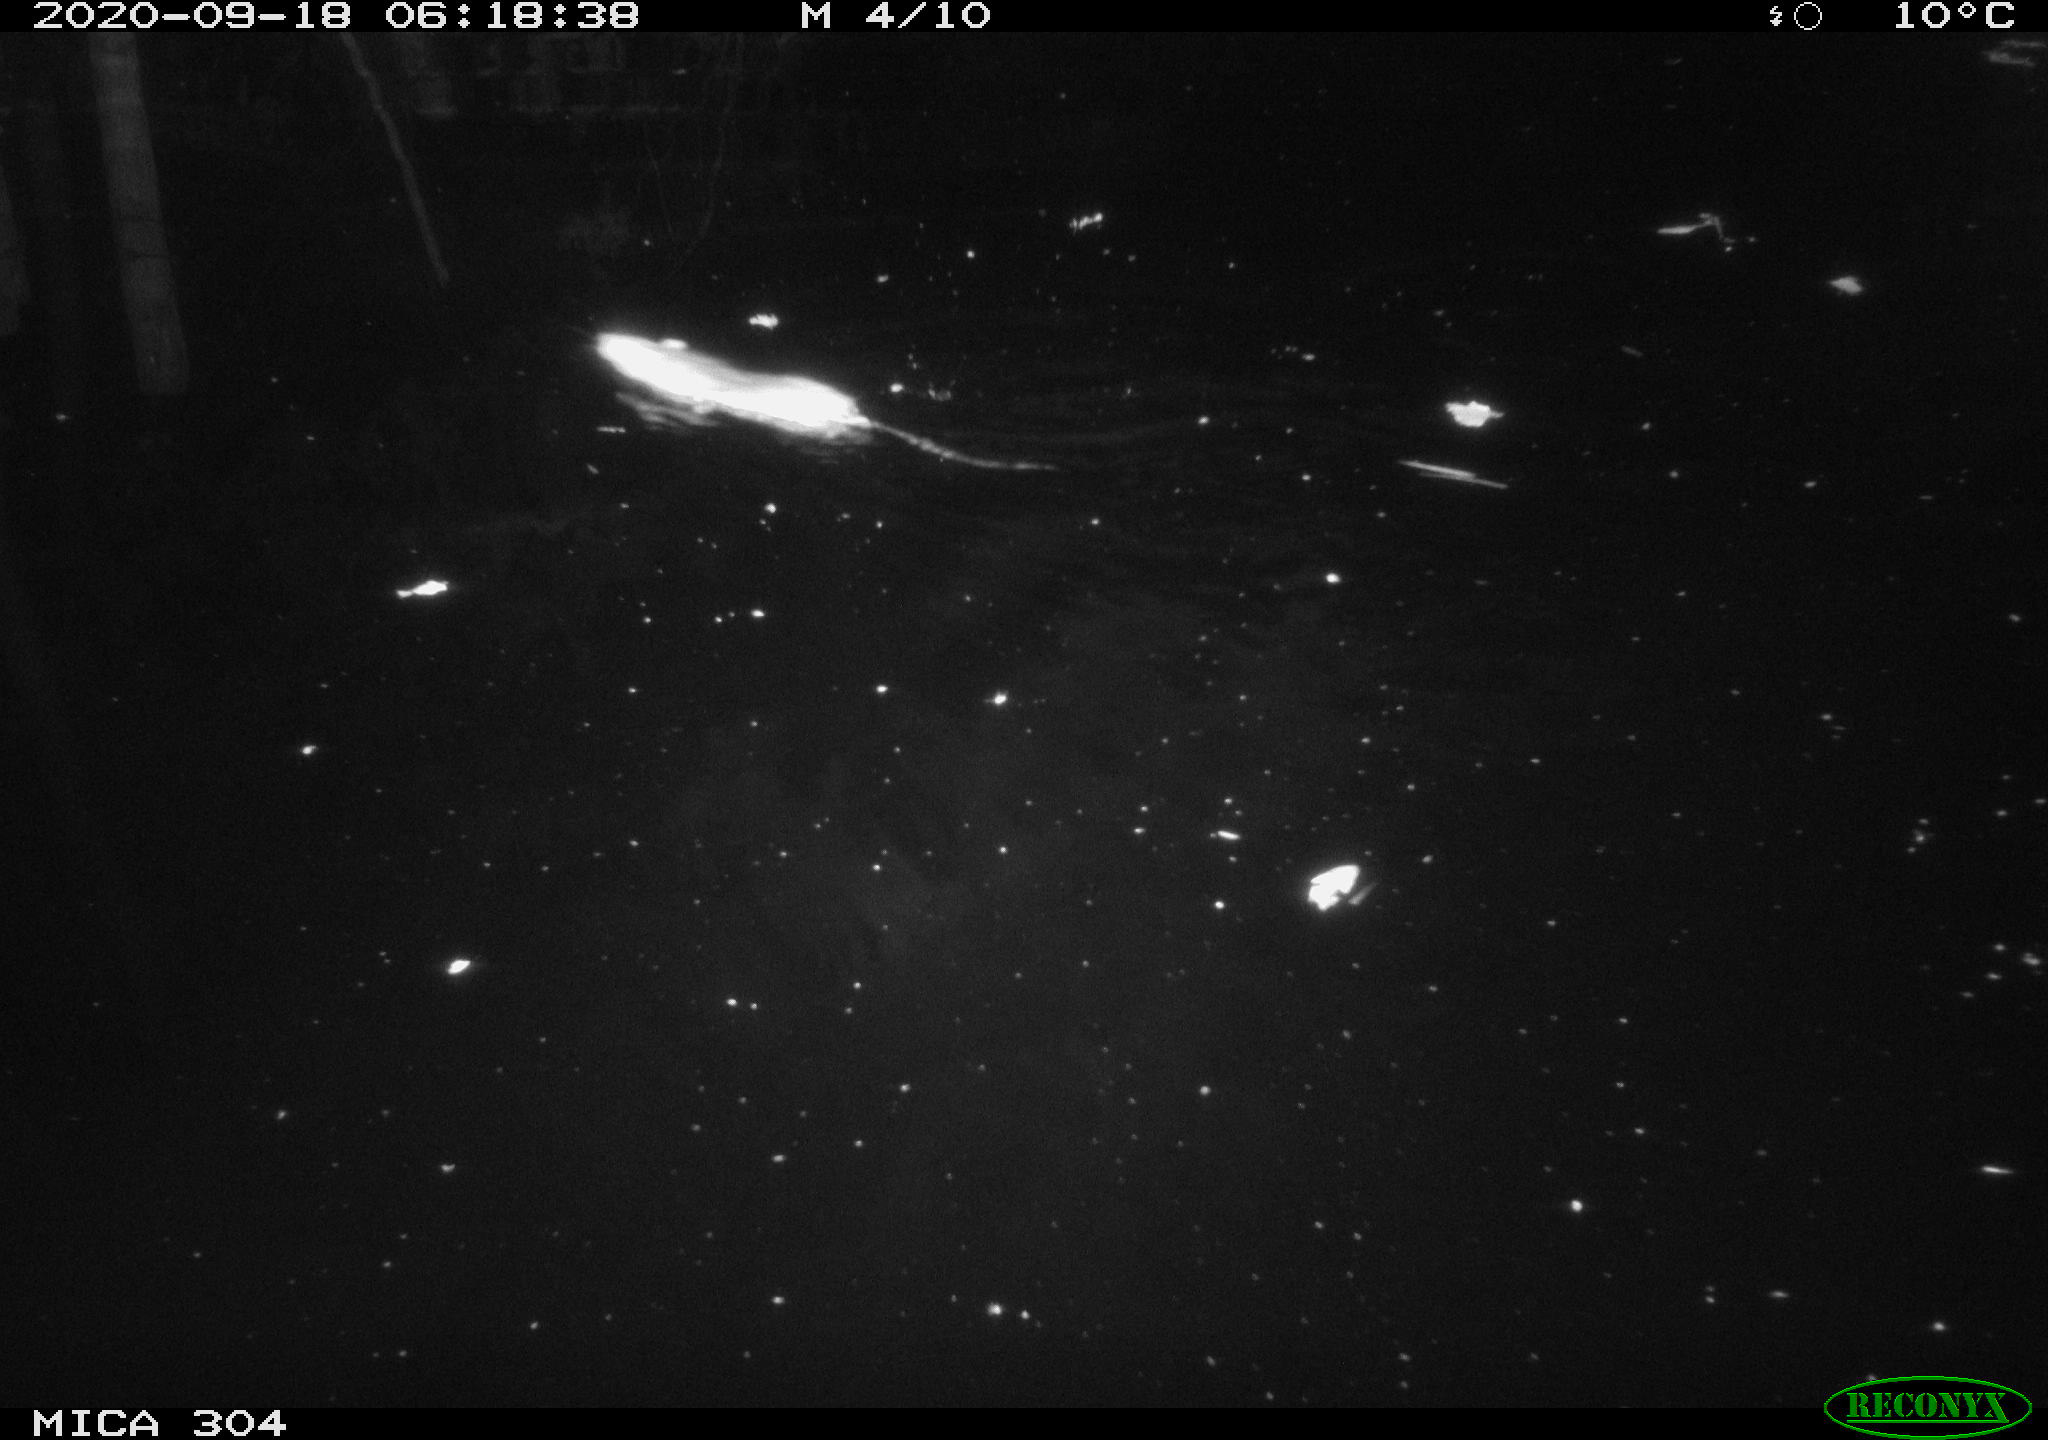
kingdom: Animalia
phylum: Chordata
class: Mammalia
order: Rodentia
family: Muridae
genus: Rattus
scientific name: Rattus norvegicus
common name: Brown rat
